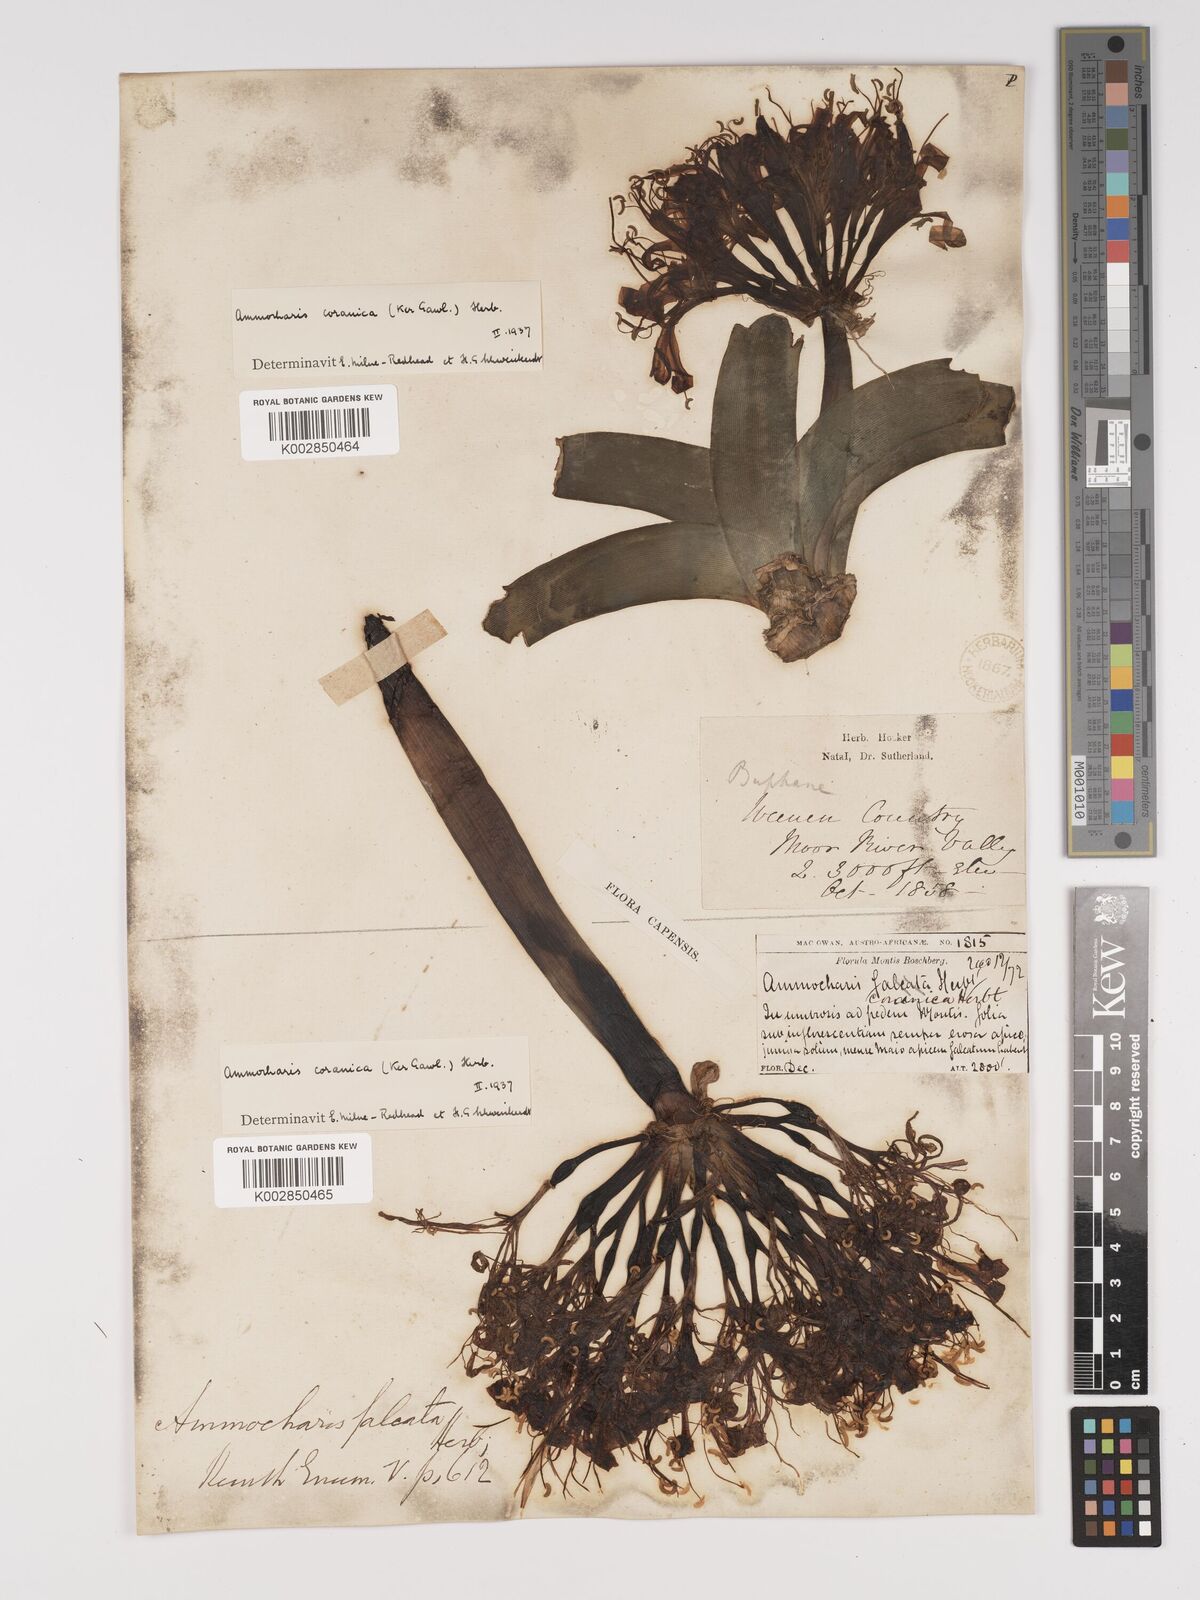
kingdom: Plantae
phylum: Tracheophyta
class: Liliopsida
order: Asparagales
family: Amaryllidaceae
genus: Ammocharis
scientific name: Ammocharis coranica
